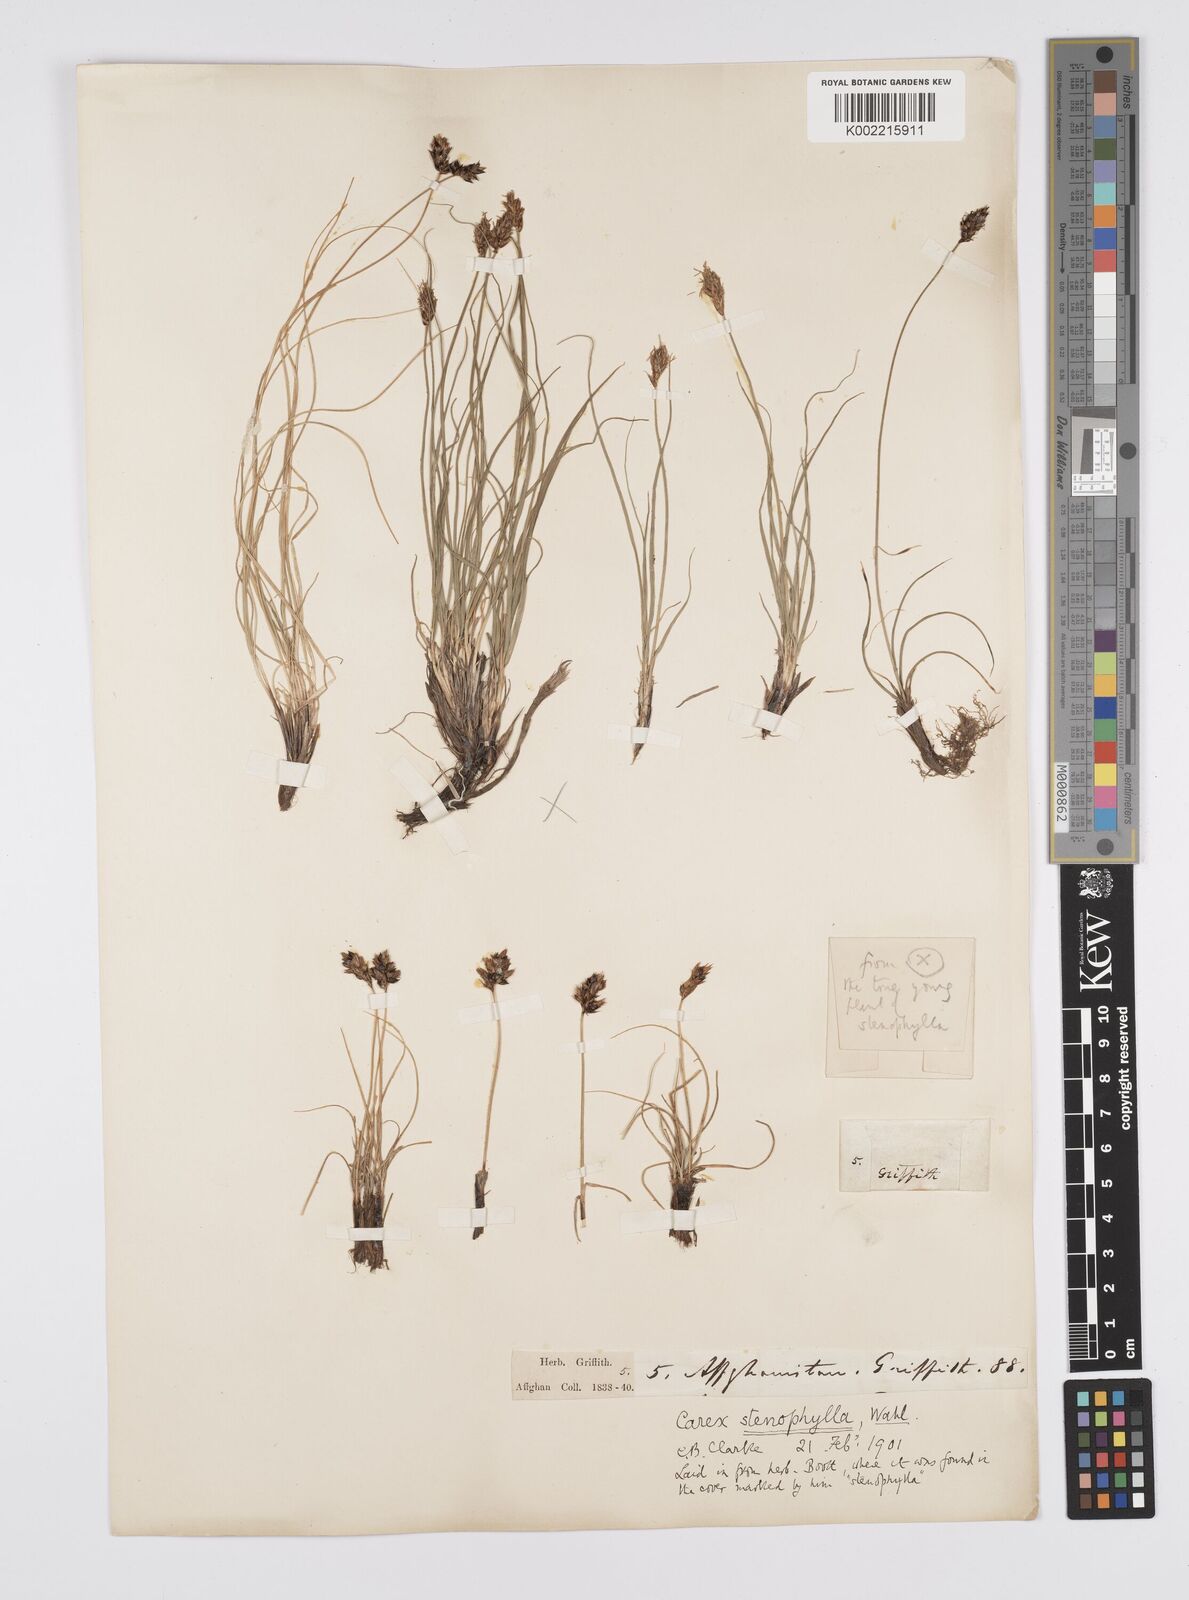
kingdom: Plantae
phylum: Tracheophyta
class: Liliopsida
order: Poales
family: Cyperaceae
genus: Carex
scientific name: Carex stenophylla
